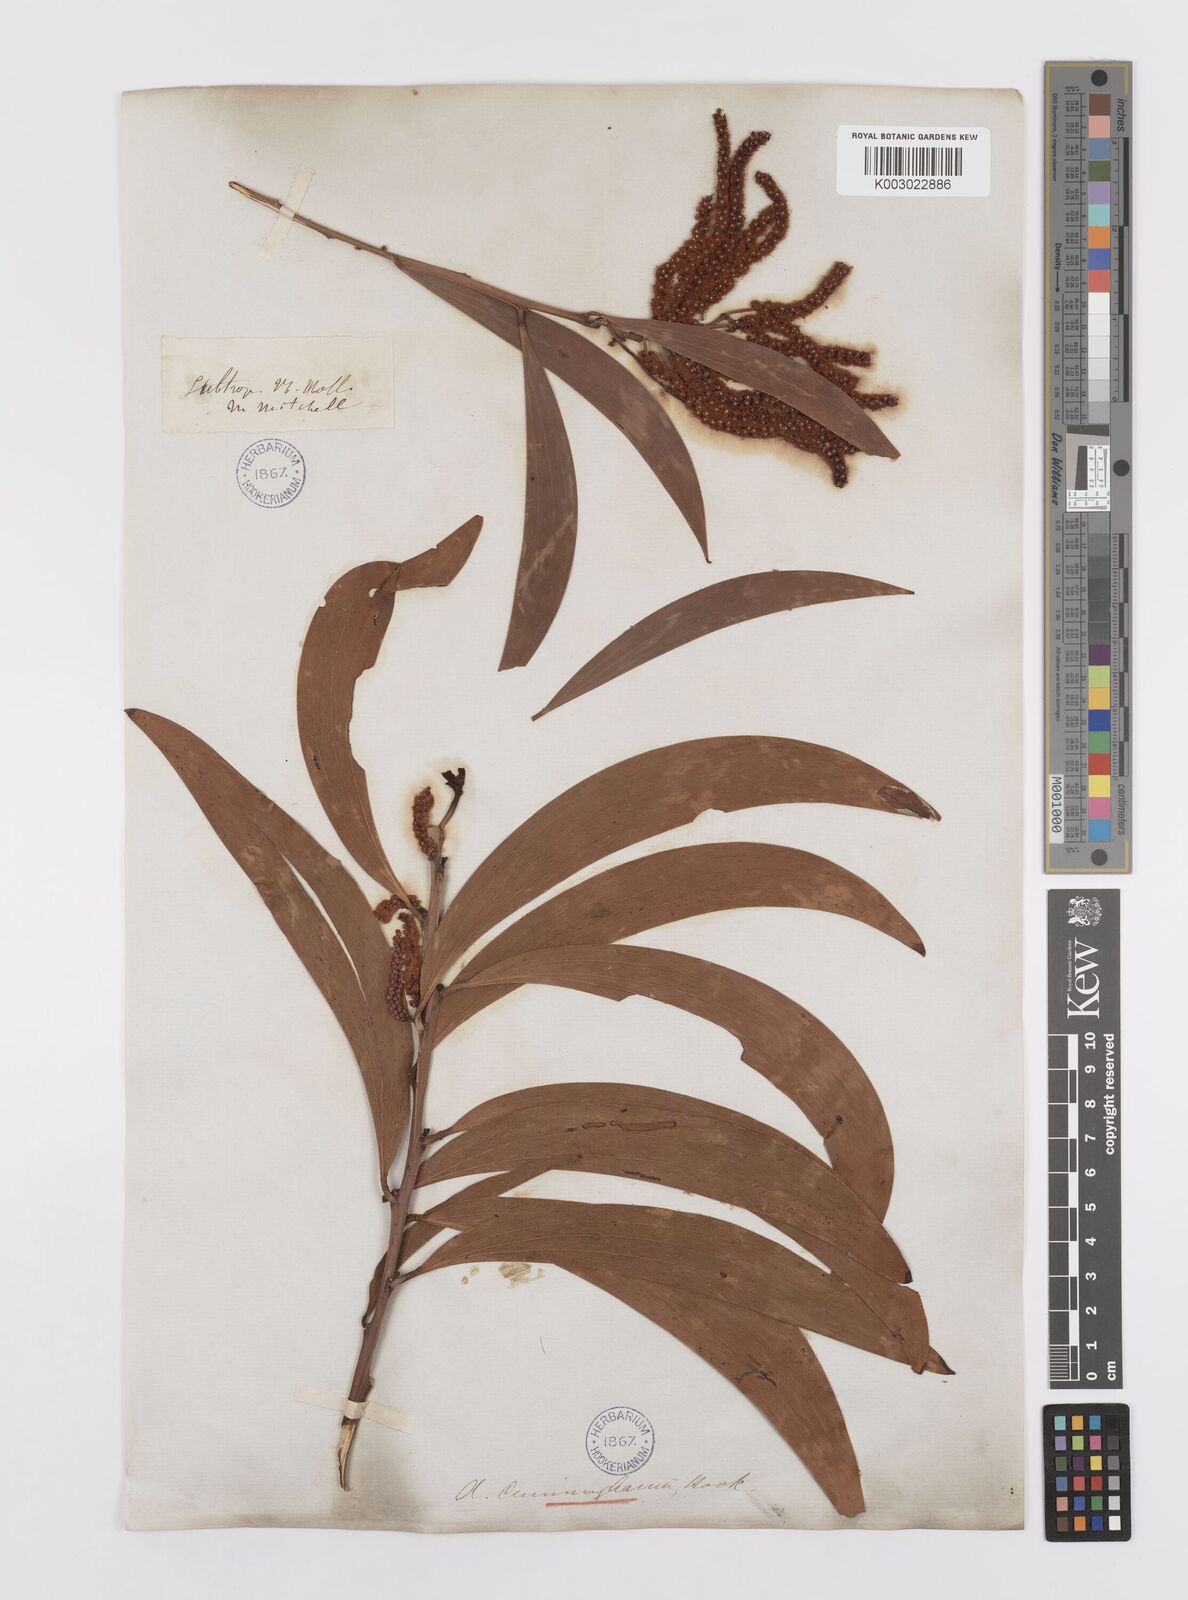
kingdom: Plantae
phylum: Tracheophyta
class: Magnoliopsida
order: Fabales
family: Fabaceae
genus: Acacia
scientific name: Acacia longispicata
